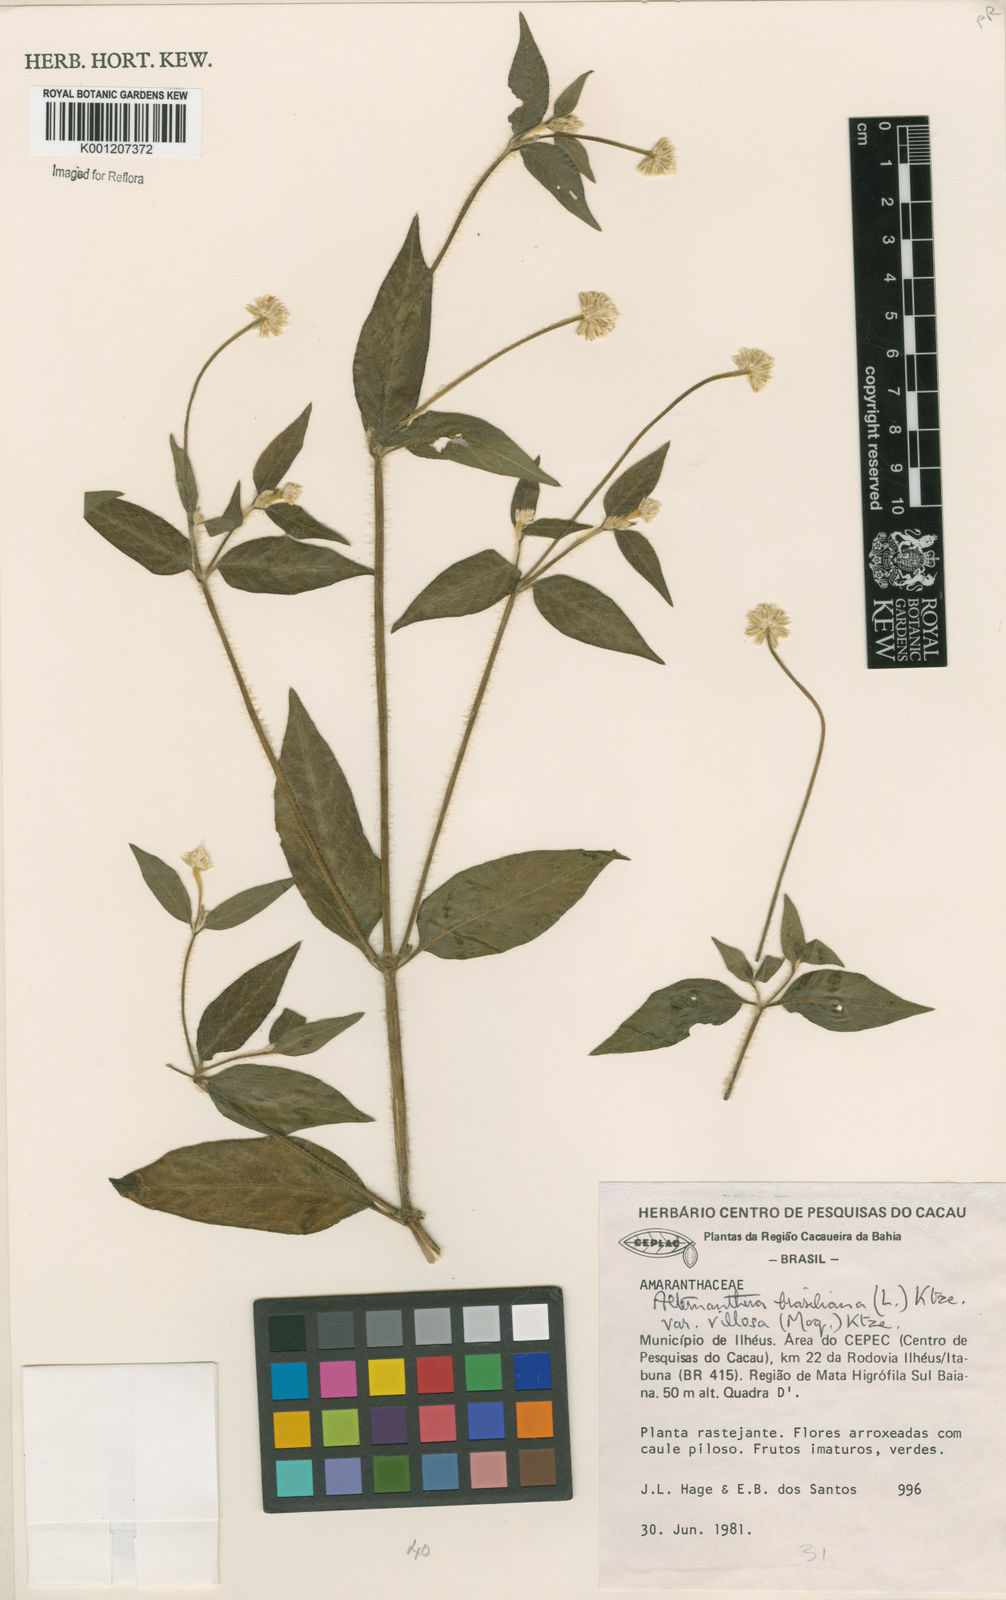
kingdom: Plantae
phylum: Tracheophyta
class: Magnoliopsida
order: Caryophyllales
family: Amaranthaceae
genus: Alternanthera
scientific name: Alternanthera ramosissima
